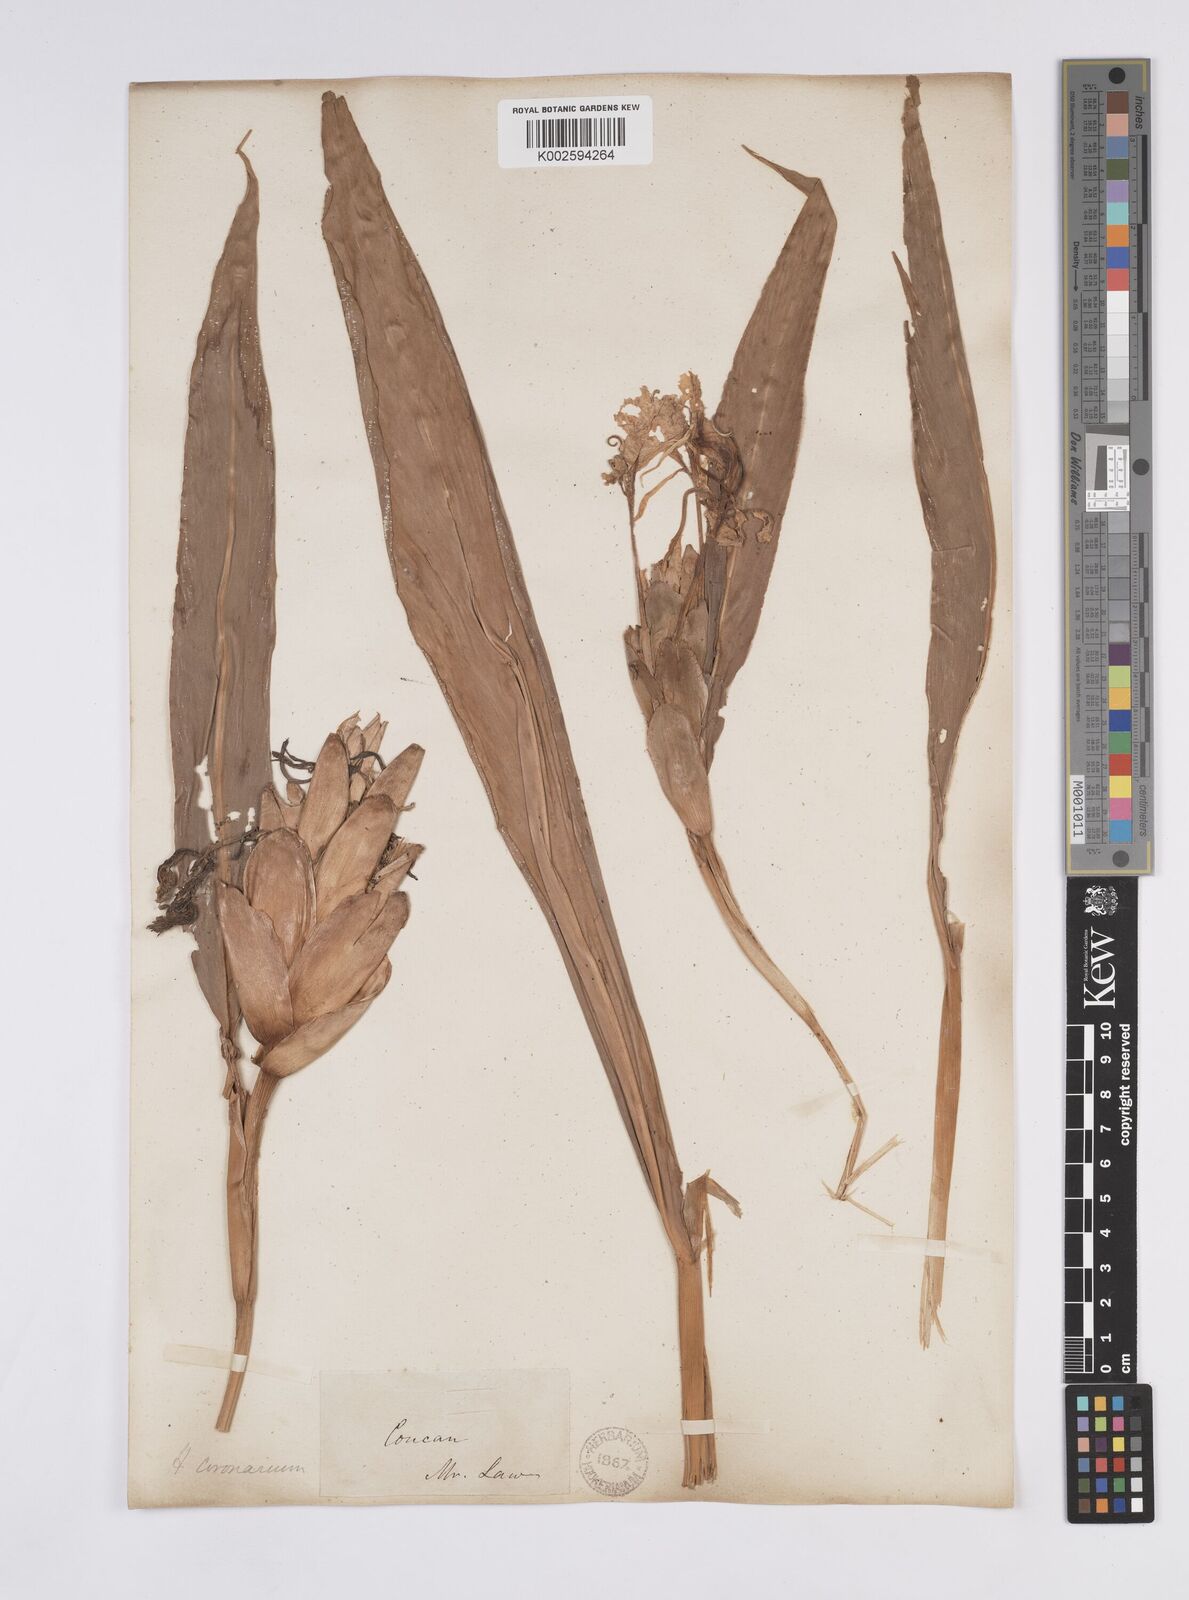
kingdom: Plantae
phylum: Tracheophyta
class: Liliopsida
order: Zingiberales
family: Zingiberaceae
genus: Hedychium
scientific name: Hedychium coronarium
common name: White garland-lily
